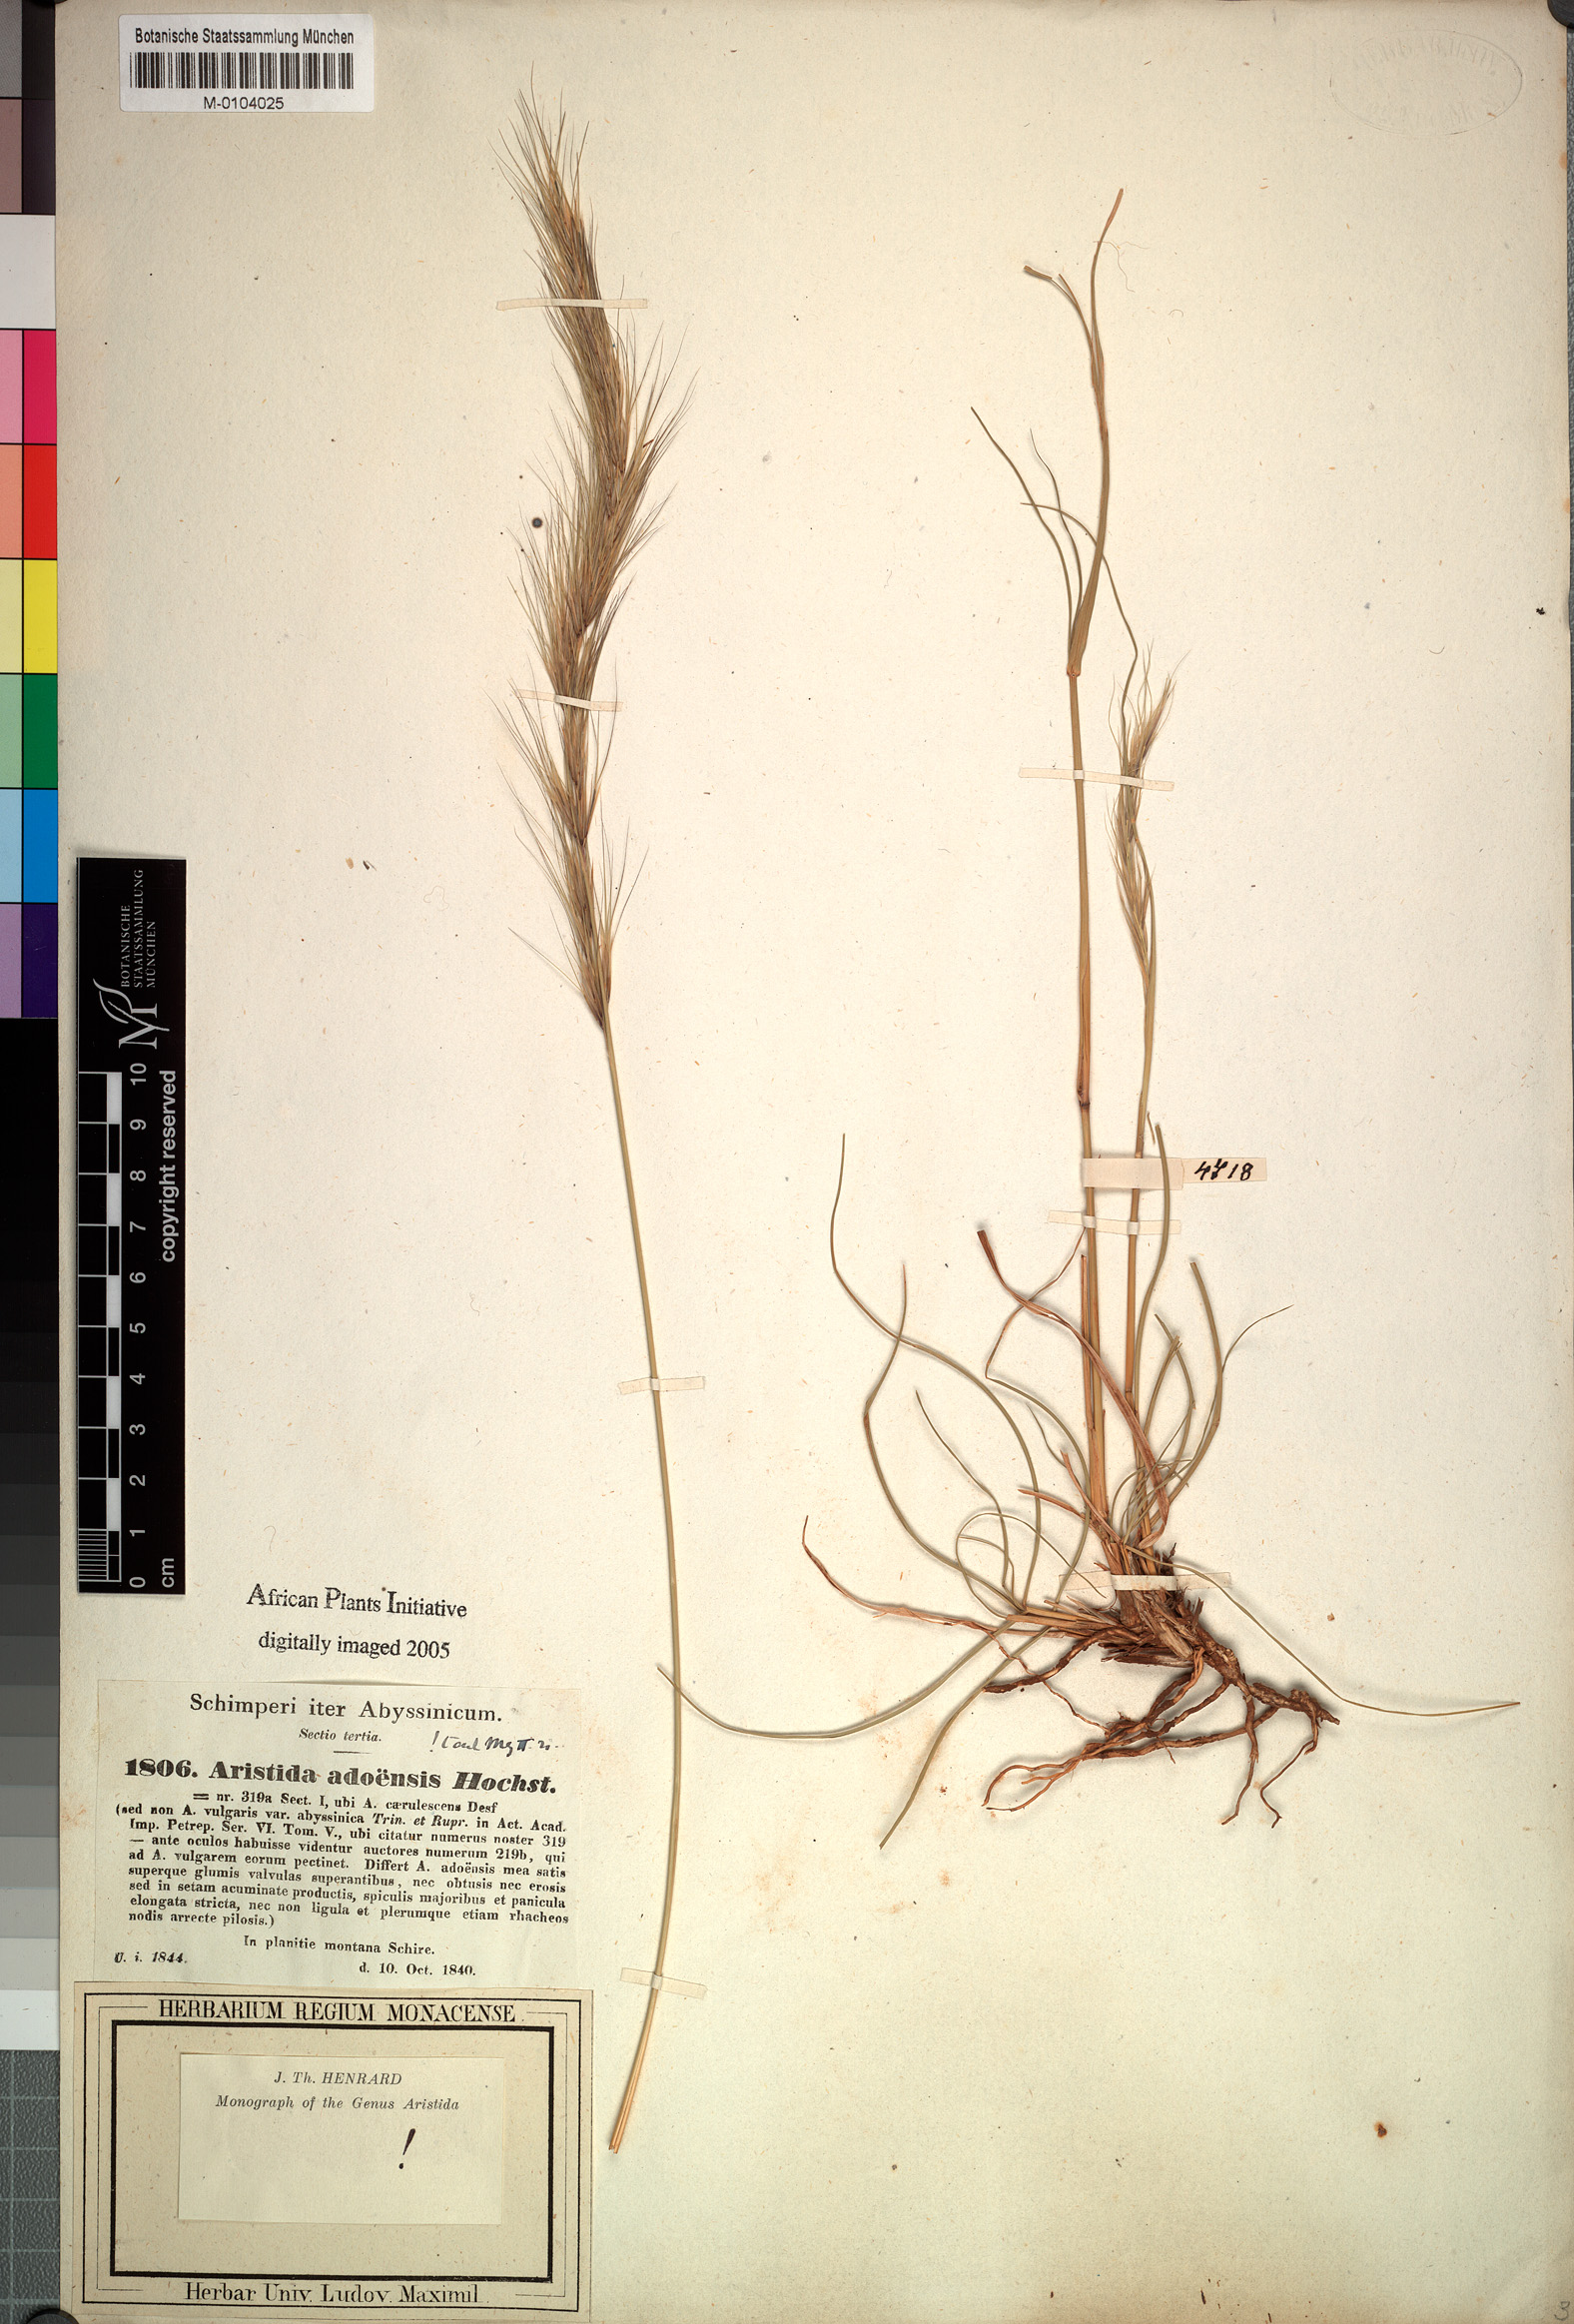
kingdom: Plantae
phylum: Tracheophyta
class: Liliopsida
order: Poales
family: Poaceae
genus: Aristida
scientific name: Aristida adoensis
